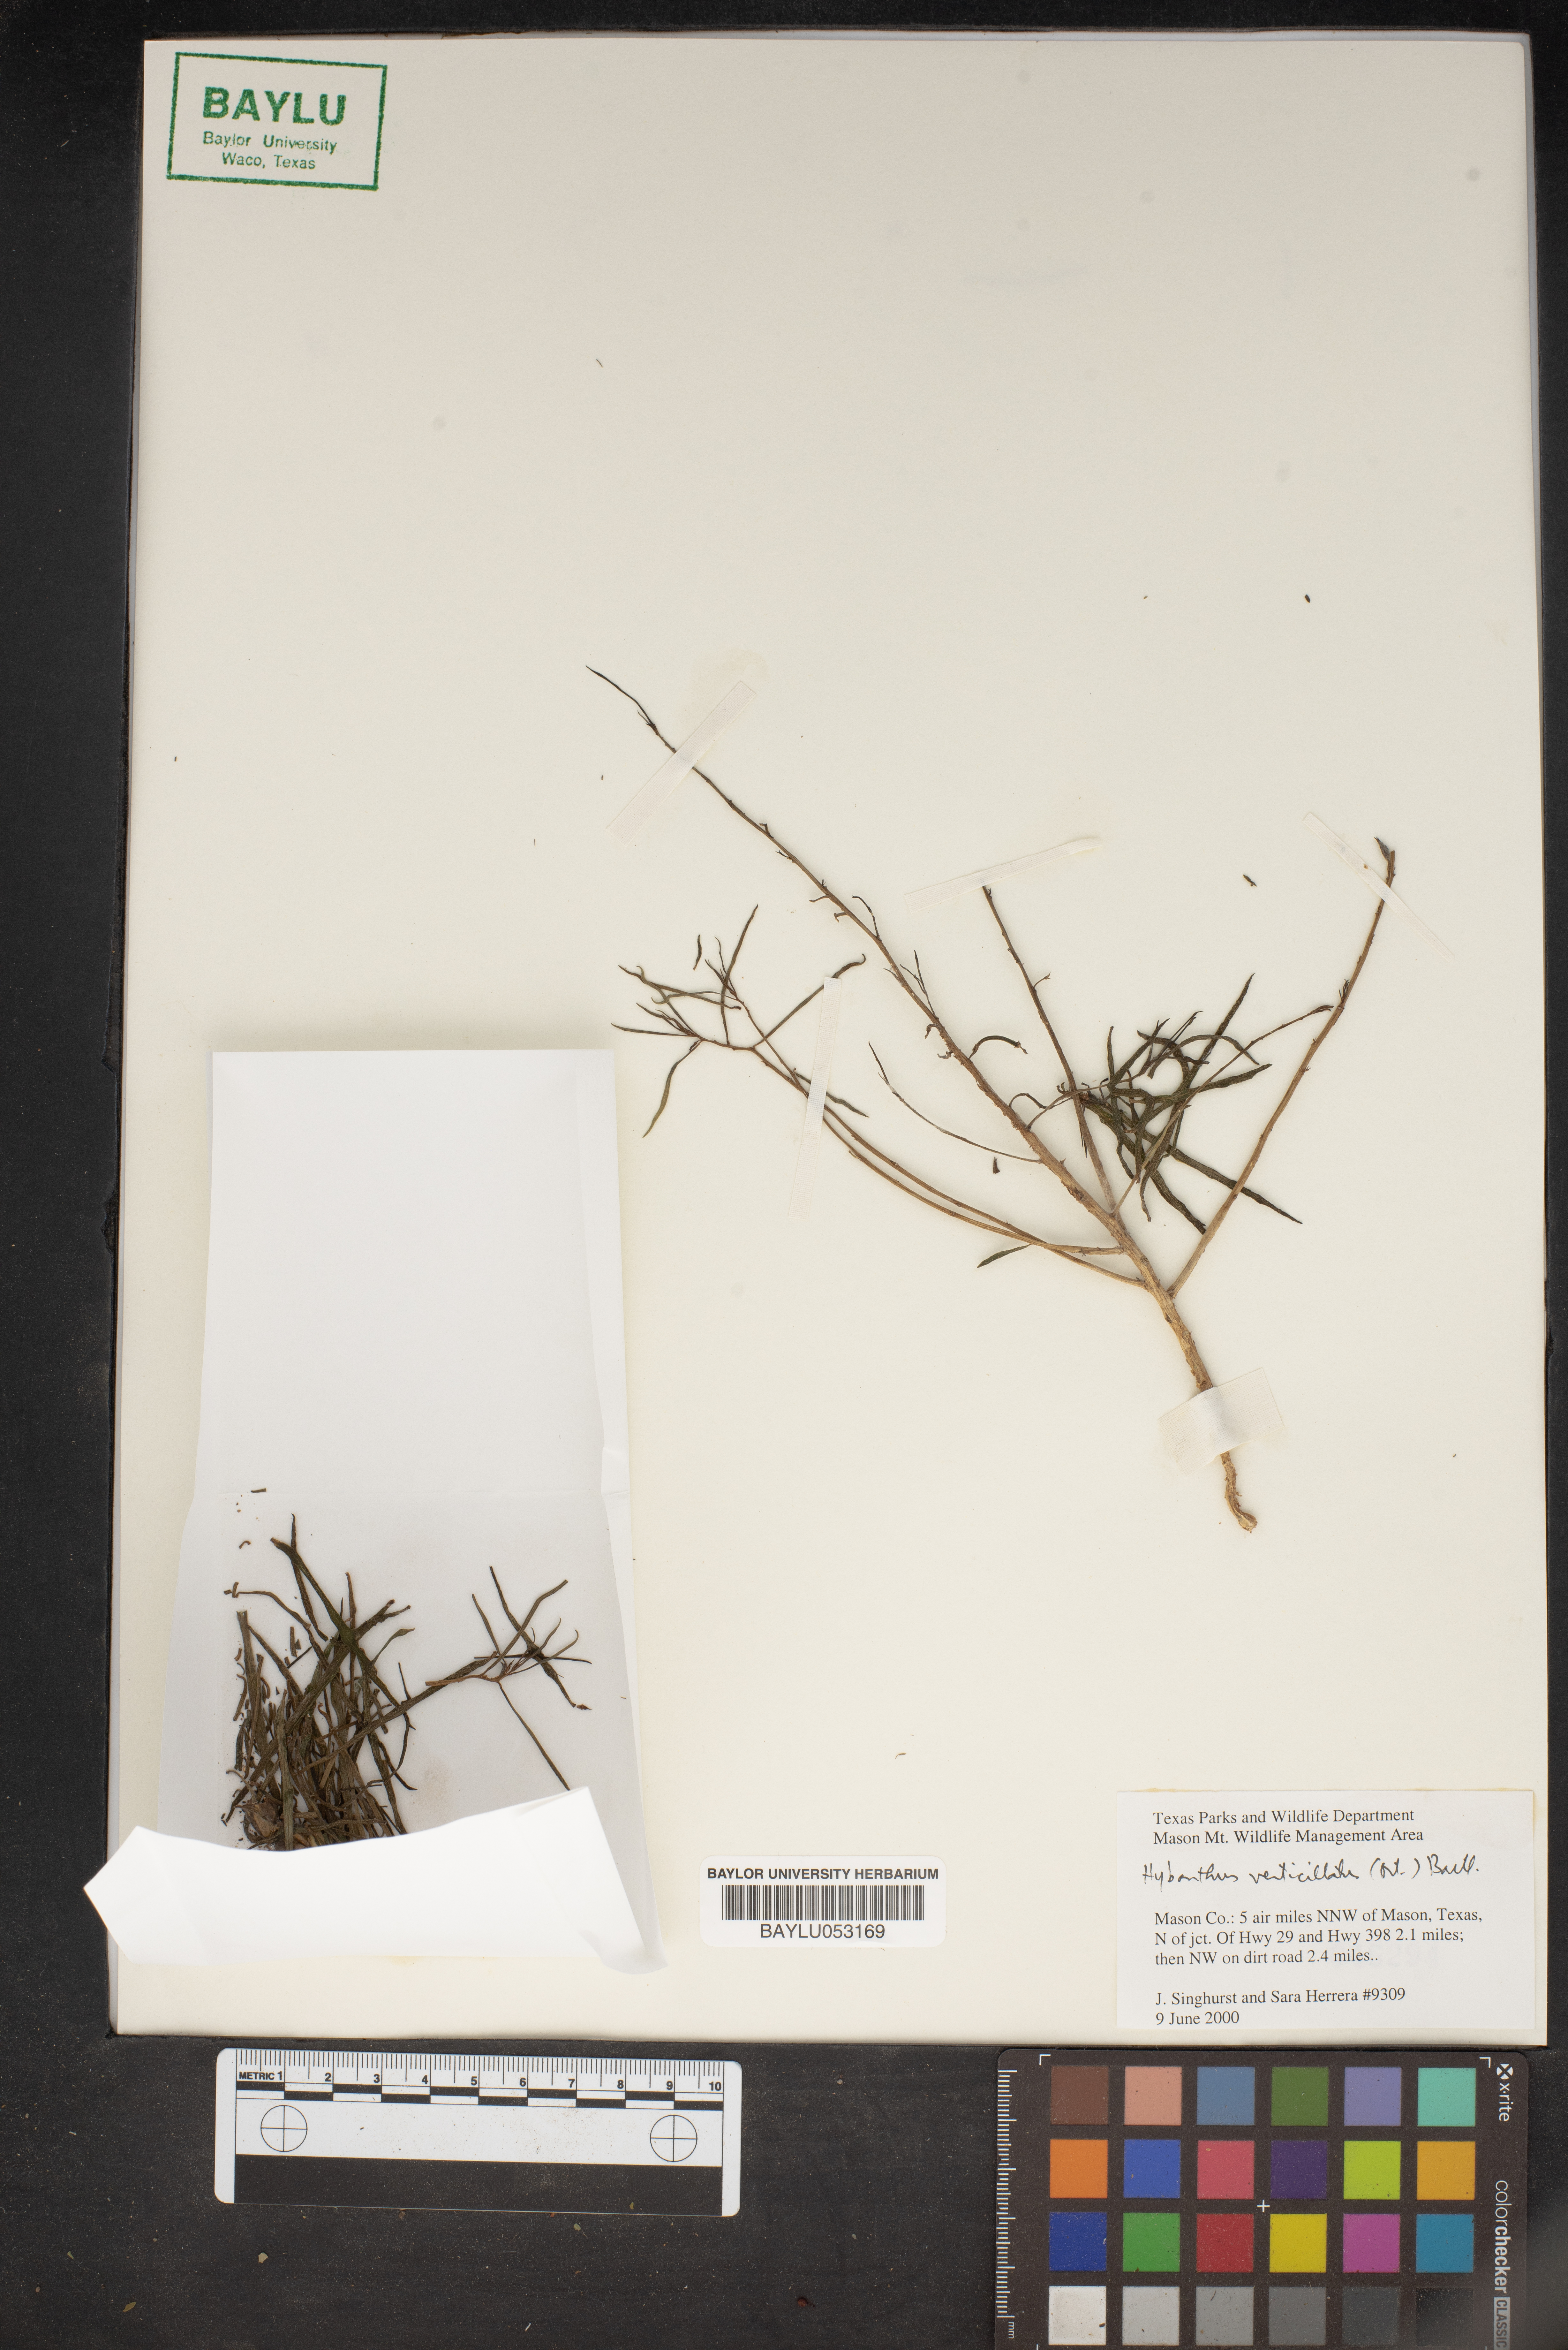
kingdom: Plantae
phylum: Tracheophyta
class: Magnoliopsida
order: Malpighiales
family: Violaceae
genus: Pombalia
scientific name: Pombalia verticillata
